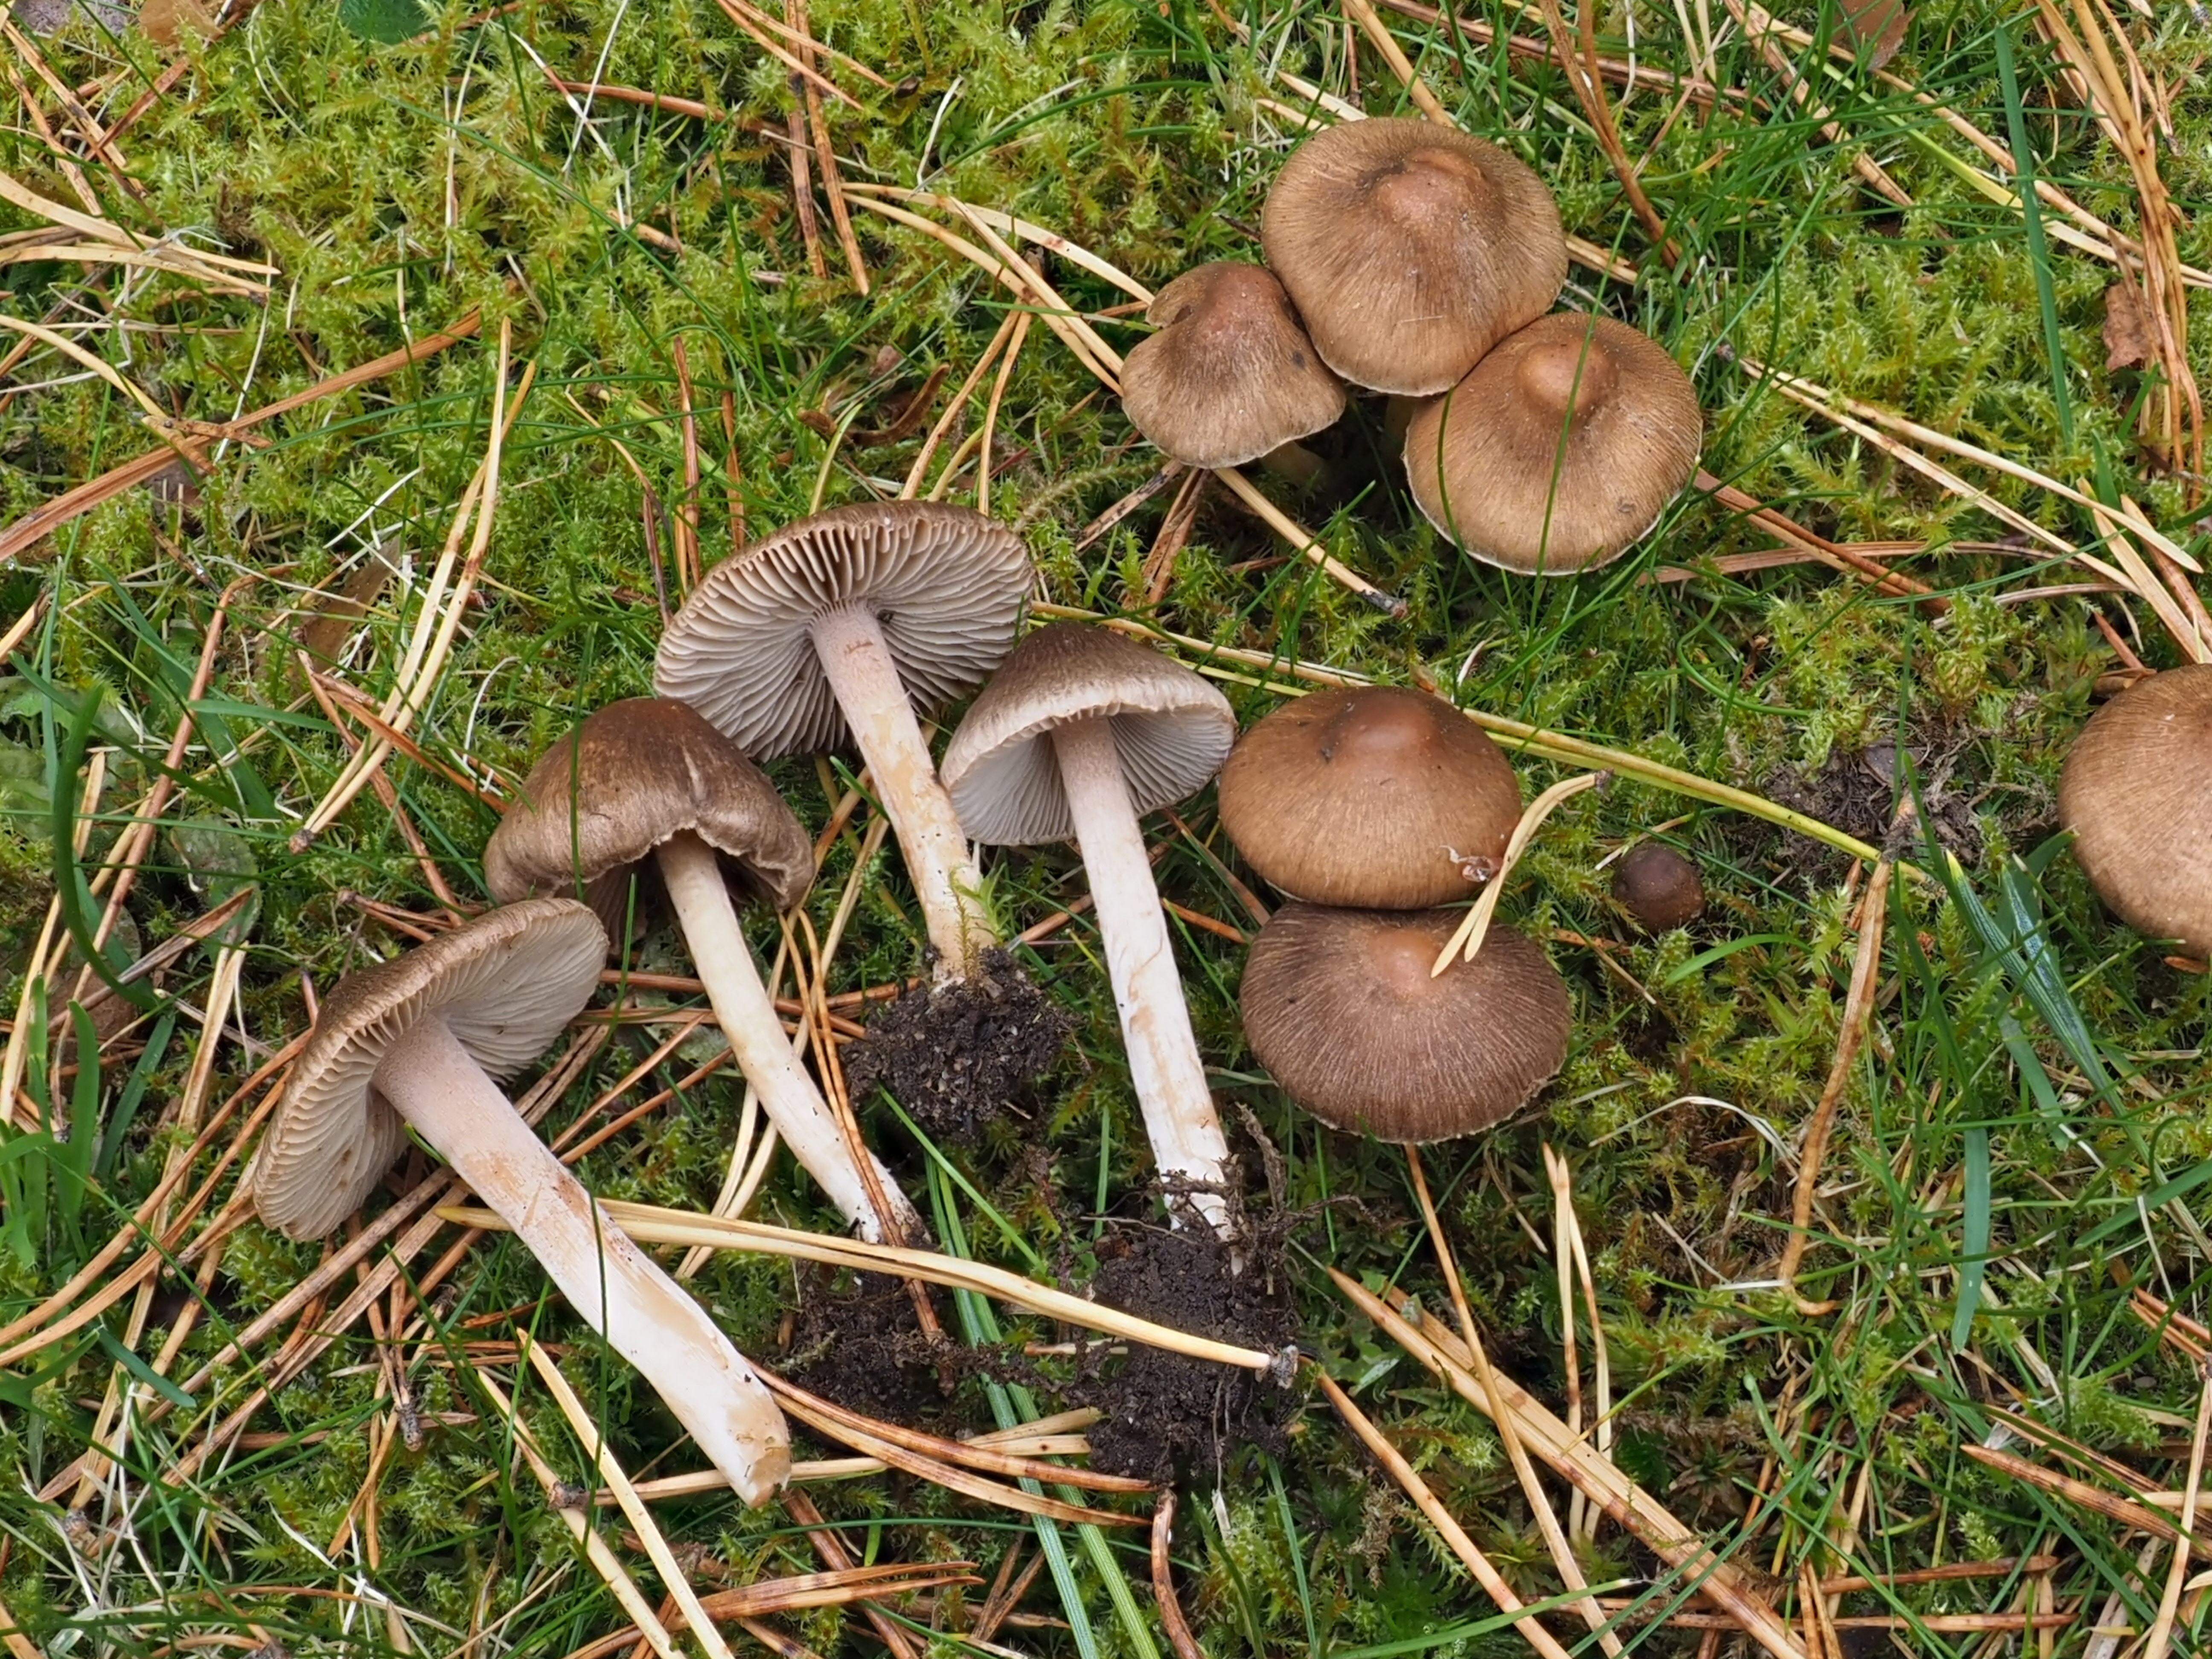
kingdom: Fungi
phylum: Basidiomycota
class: Agaricomycetes
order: Agaricales
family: Inocybaceae
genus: Inocybe
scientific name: Inocybe
